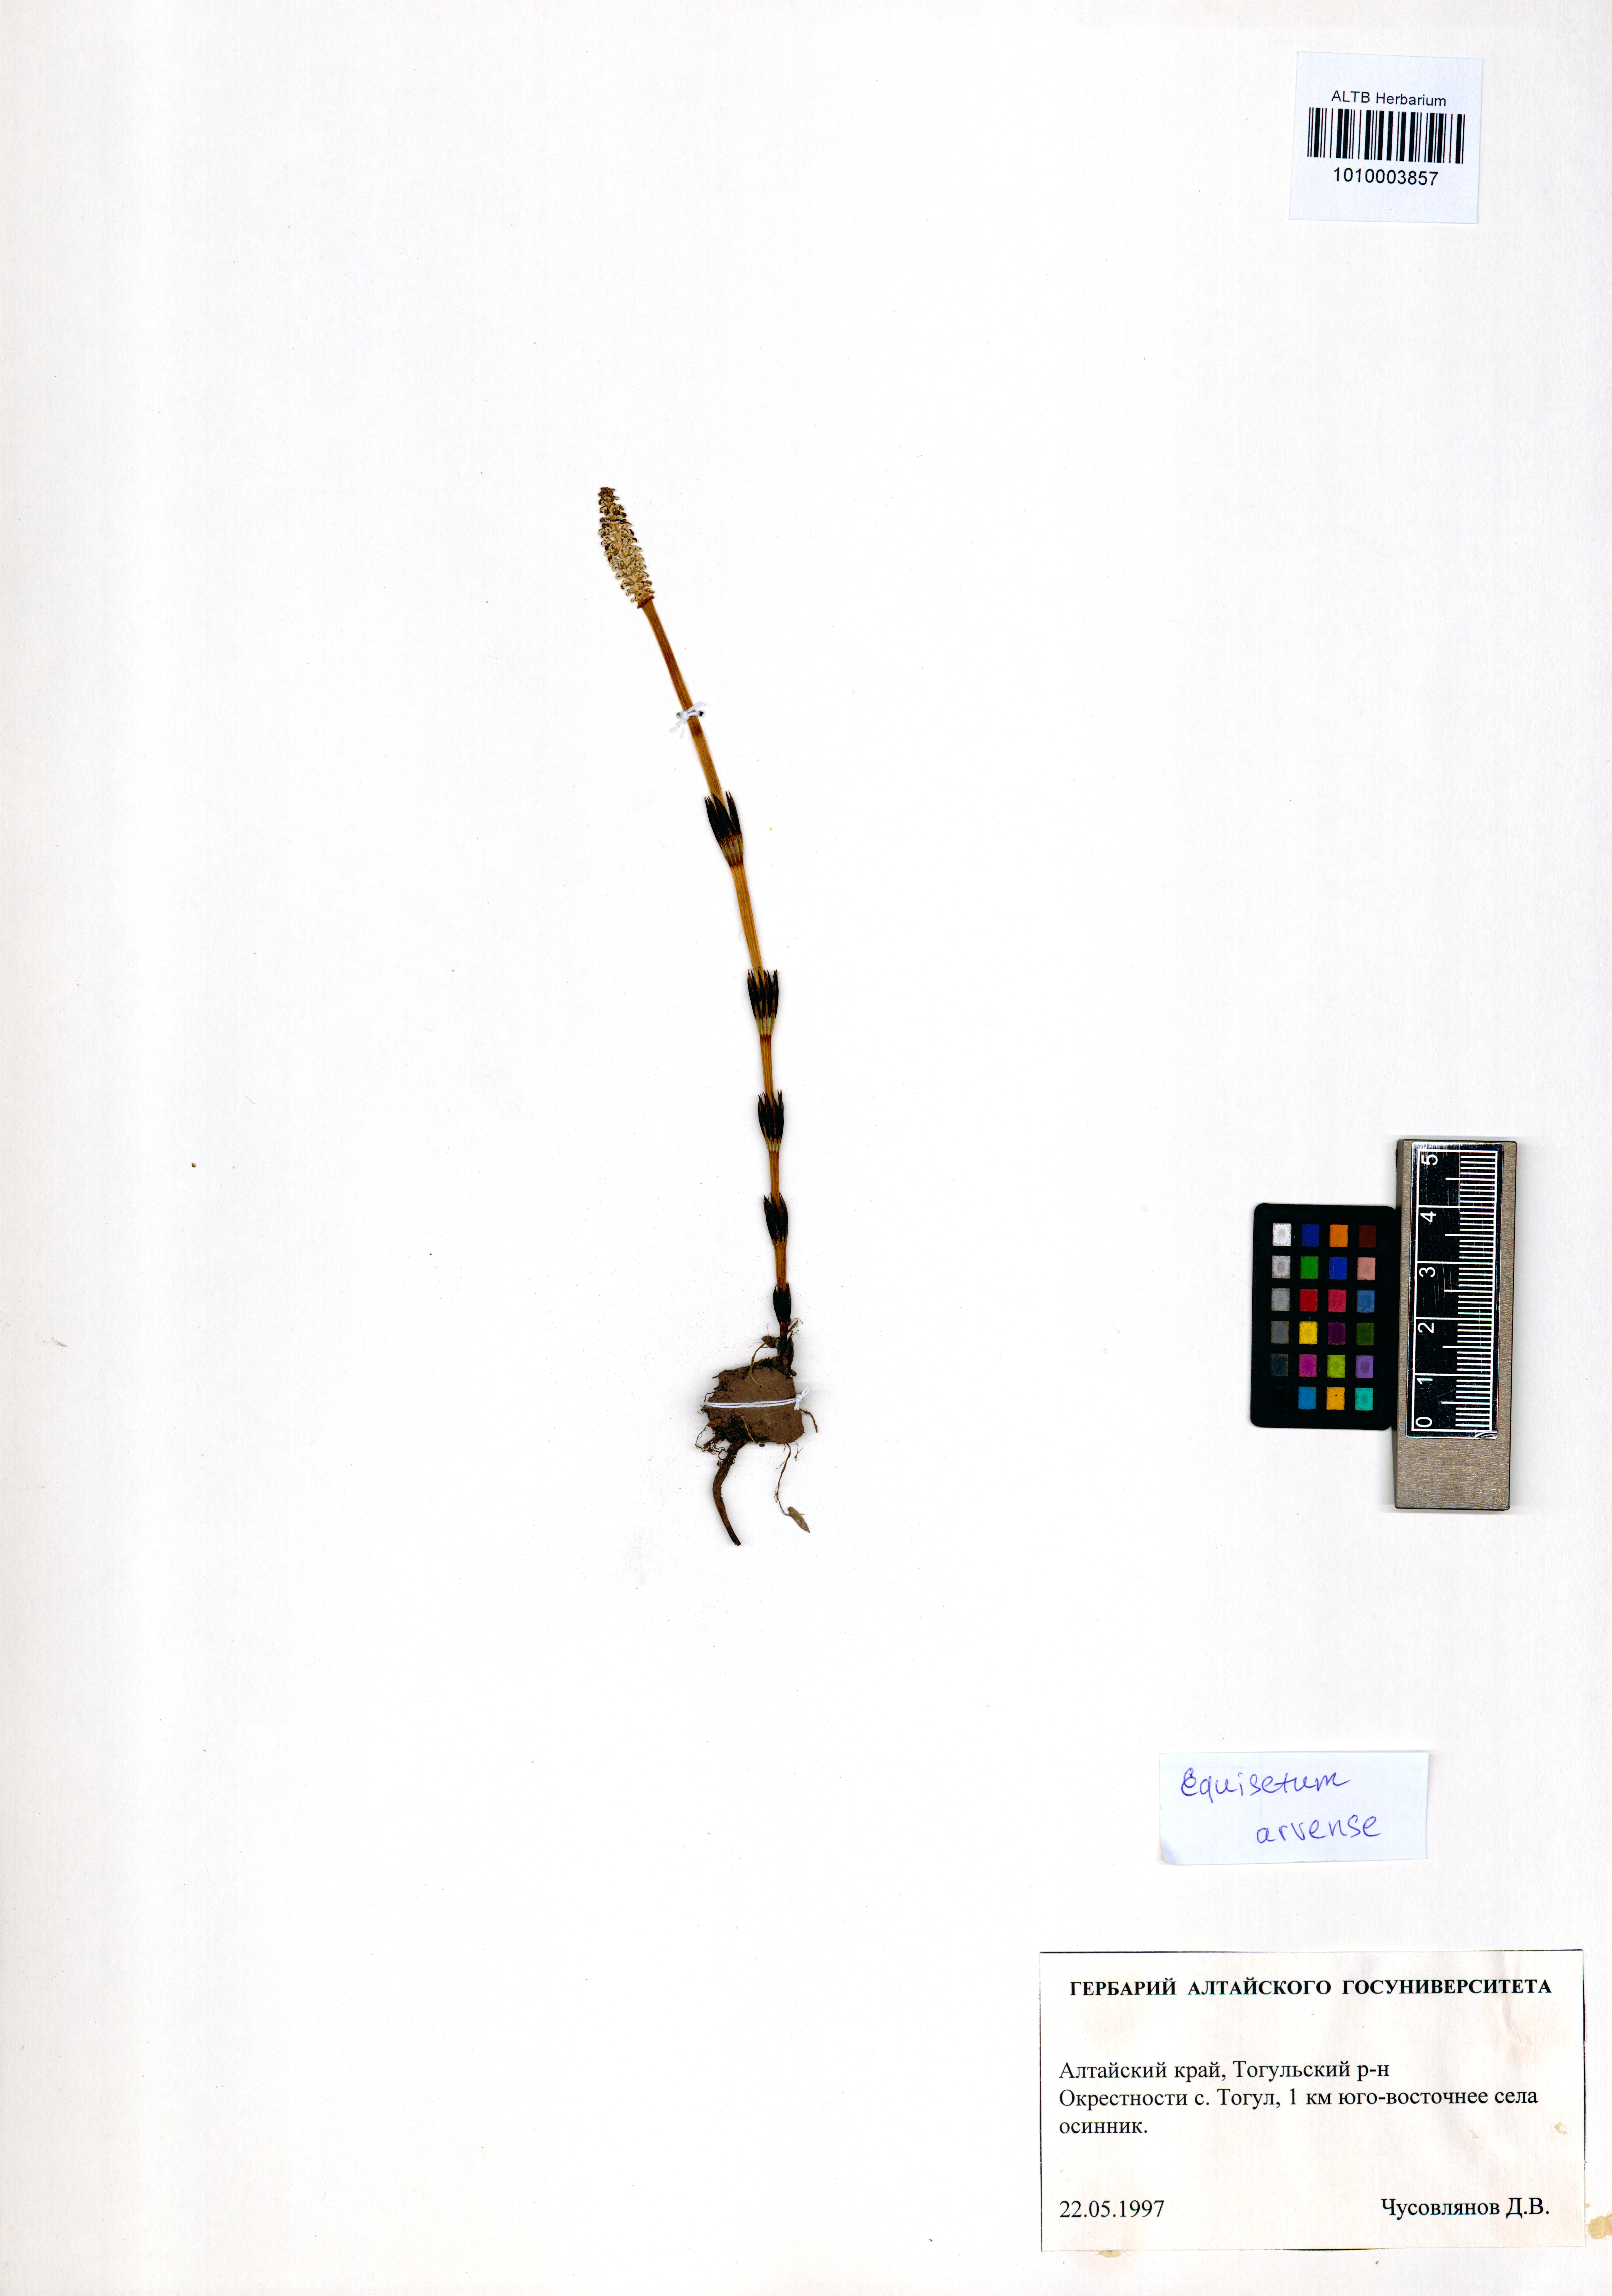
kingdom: Plantae
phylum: Tracheophyta
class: Polypodiopsida
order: Equisetales
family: Equisetaceae
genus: Equisetum
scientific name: Equisetum arvense
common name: Field horsetail
